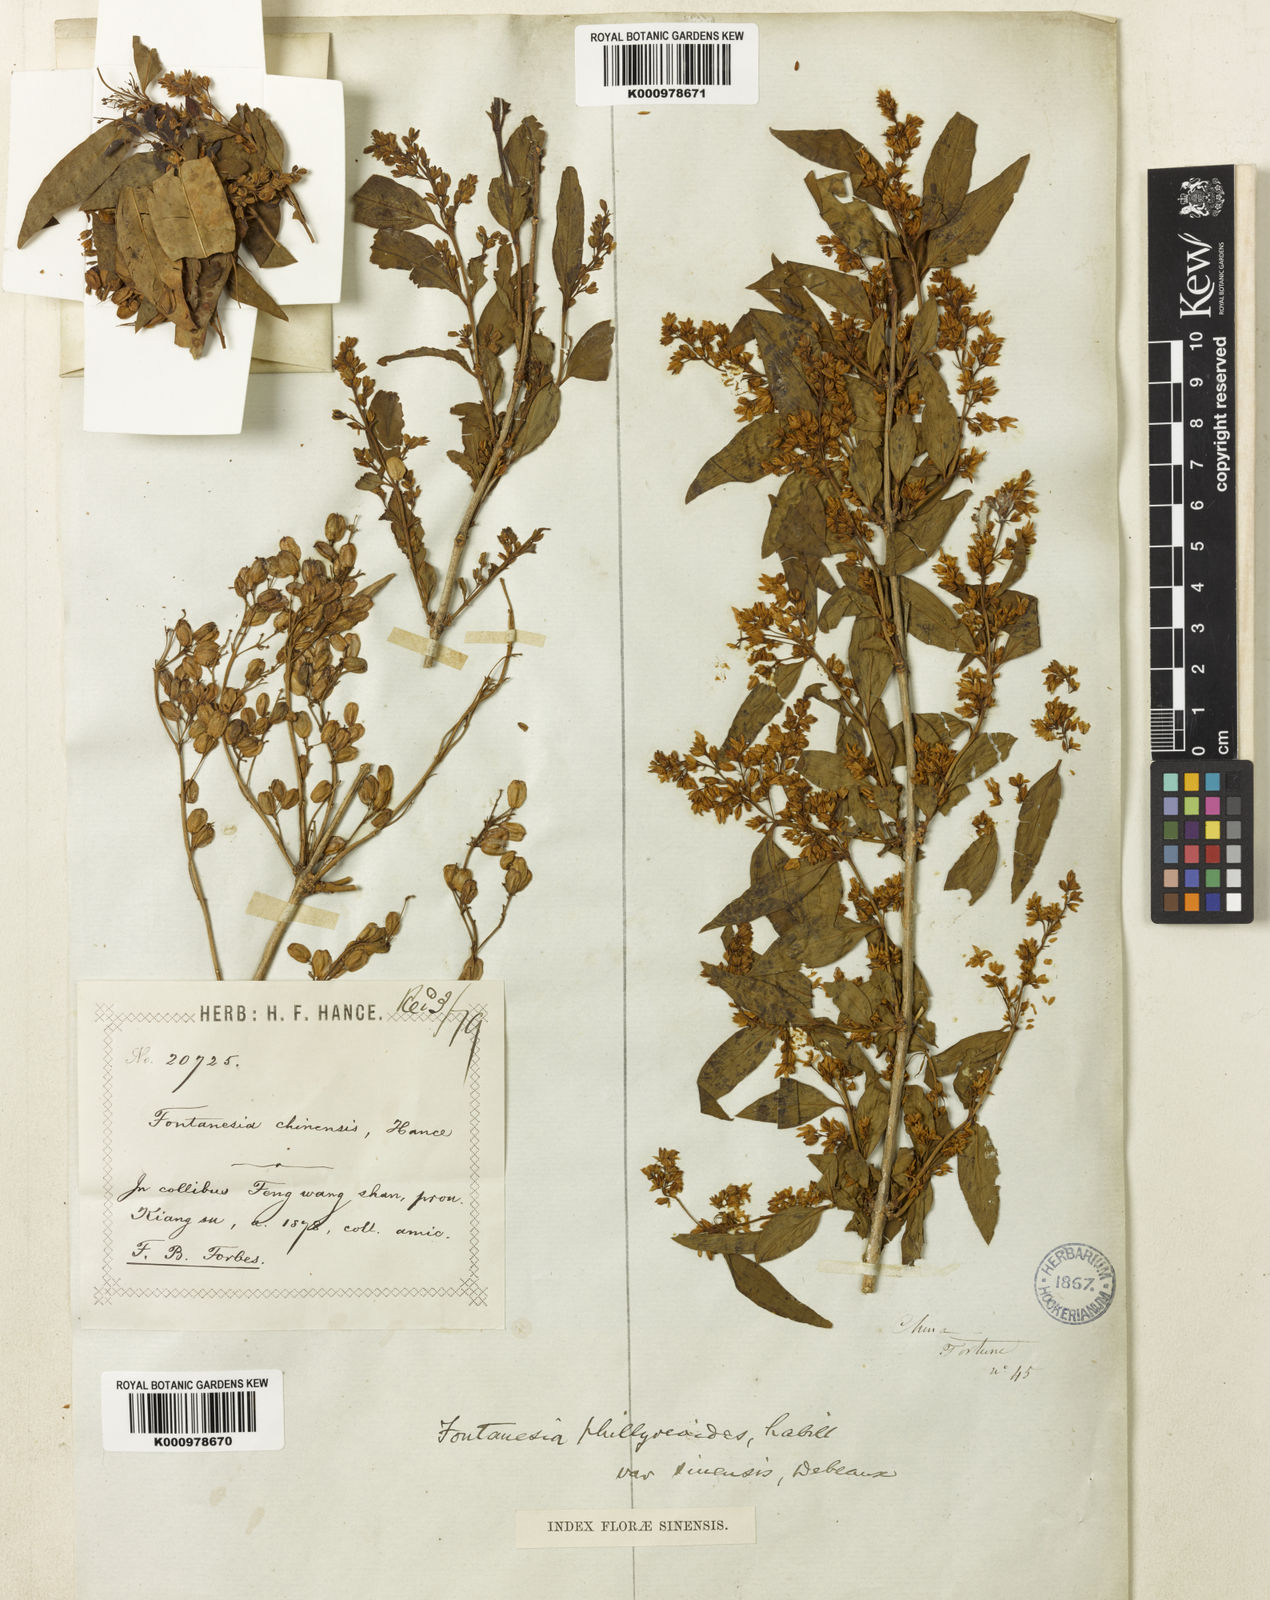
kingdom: Plantae
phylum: Tracheophyta
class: Magnoliopsida
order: Lamiales
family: Oleaceae
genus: Fontanesia
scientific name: Fontanesia fortunei
